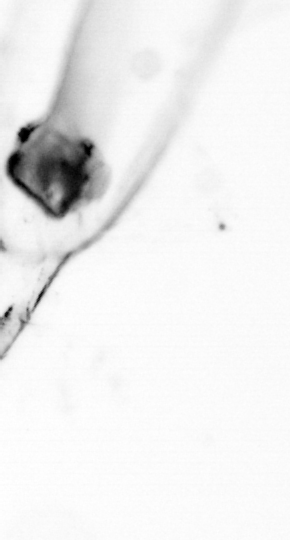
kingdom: Animalia
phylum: Chaetognatha
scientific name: Chaetognatha
